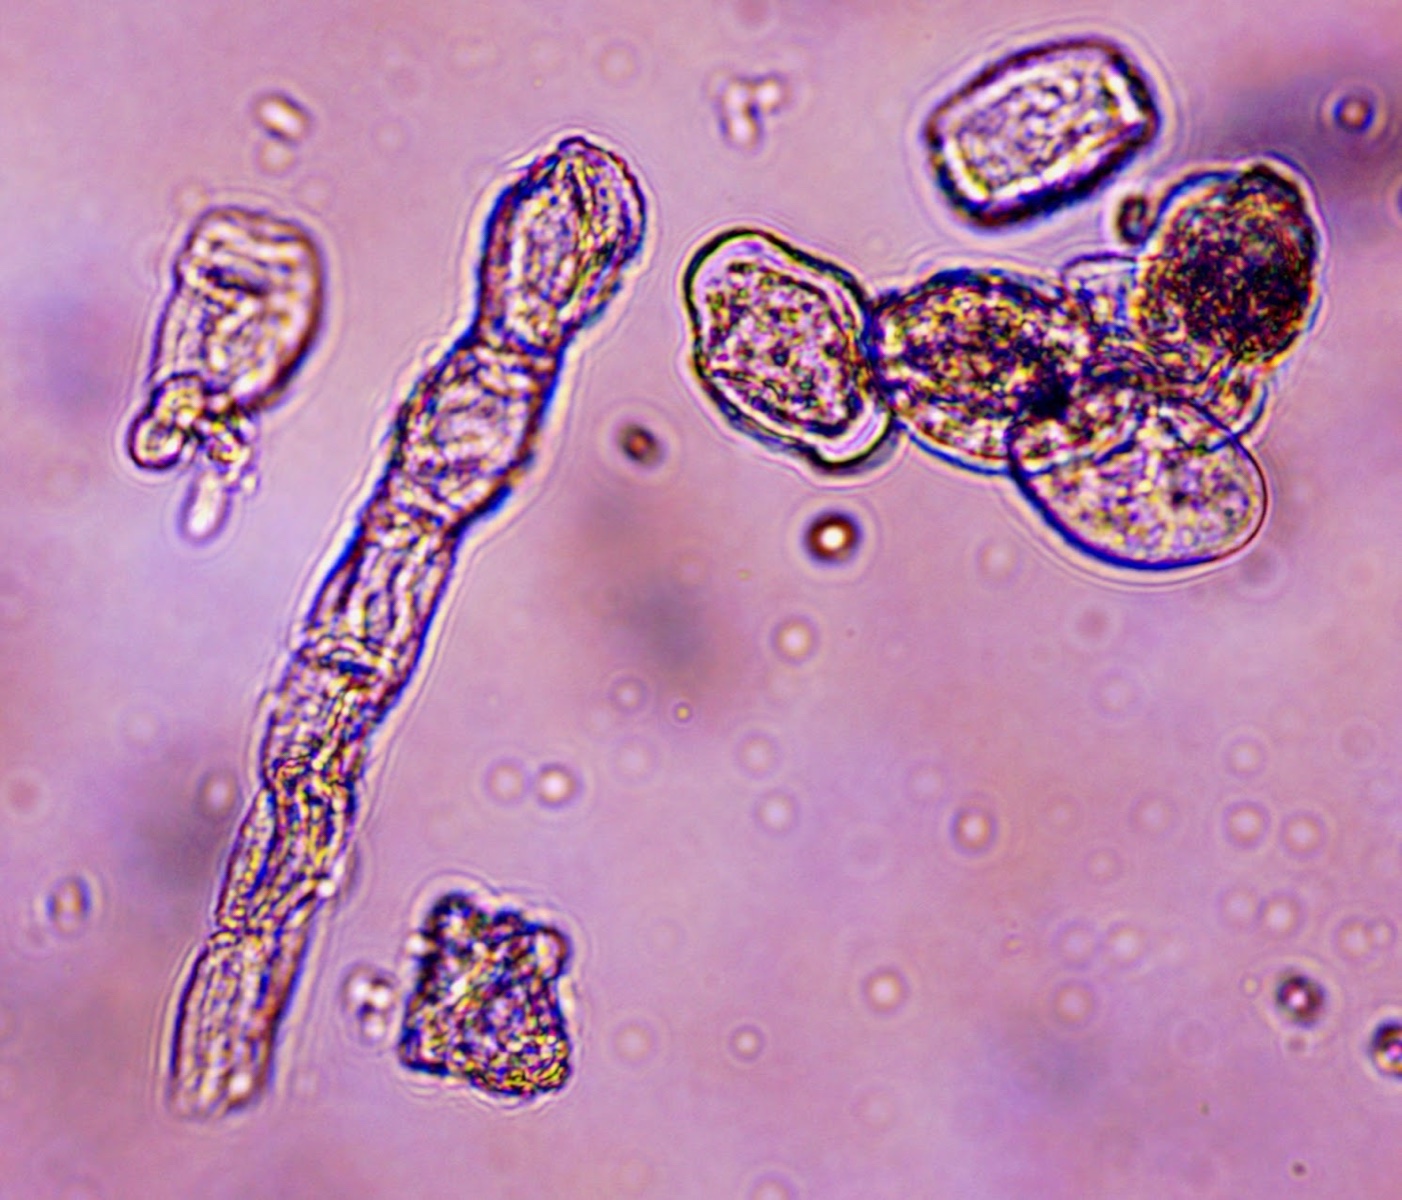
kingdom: Fungi
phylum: Ascomycota
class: Leotiomycetes
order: Helotiales
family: Erysiphaceae
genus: Golovinomyces
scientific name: Golovinomyces verbasci
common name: kongelys-meldug
